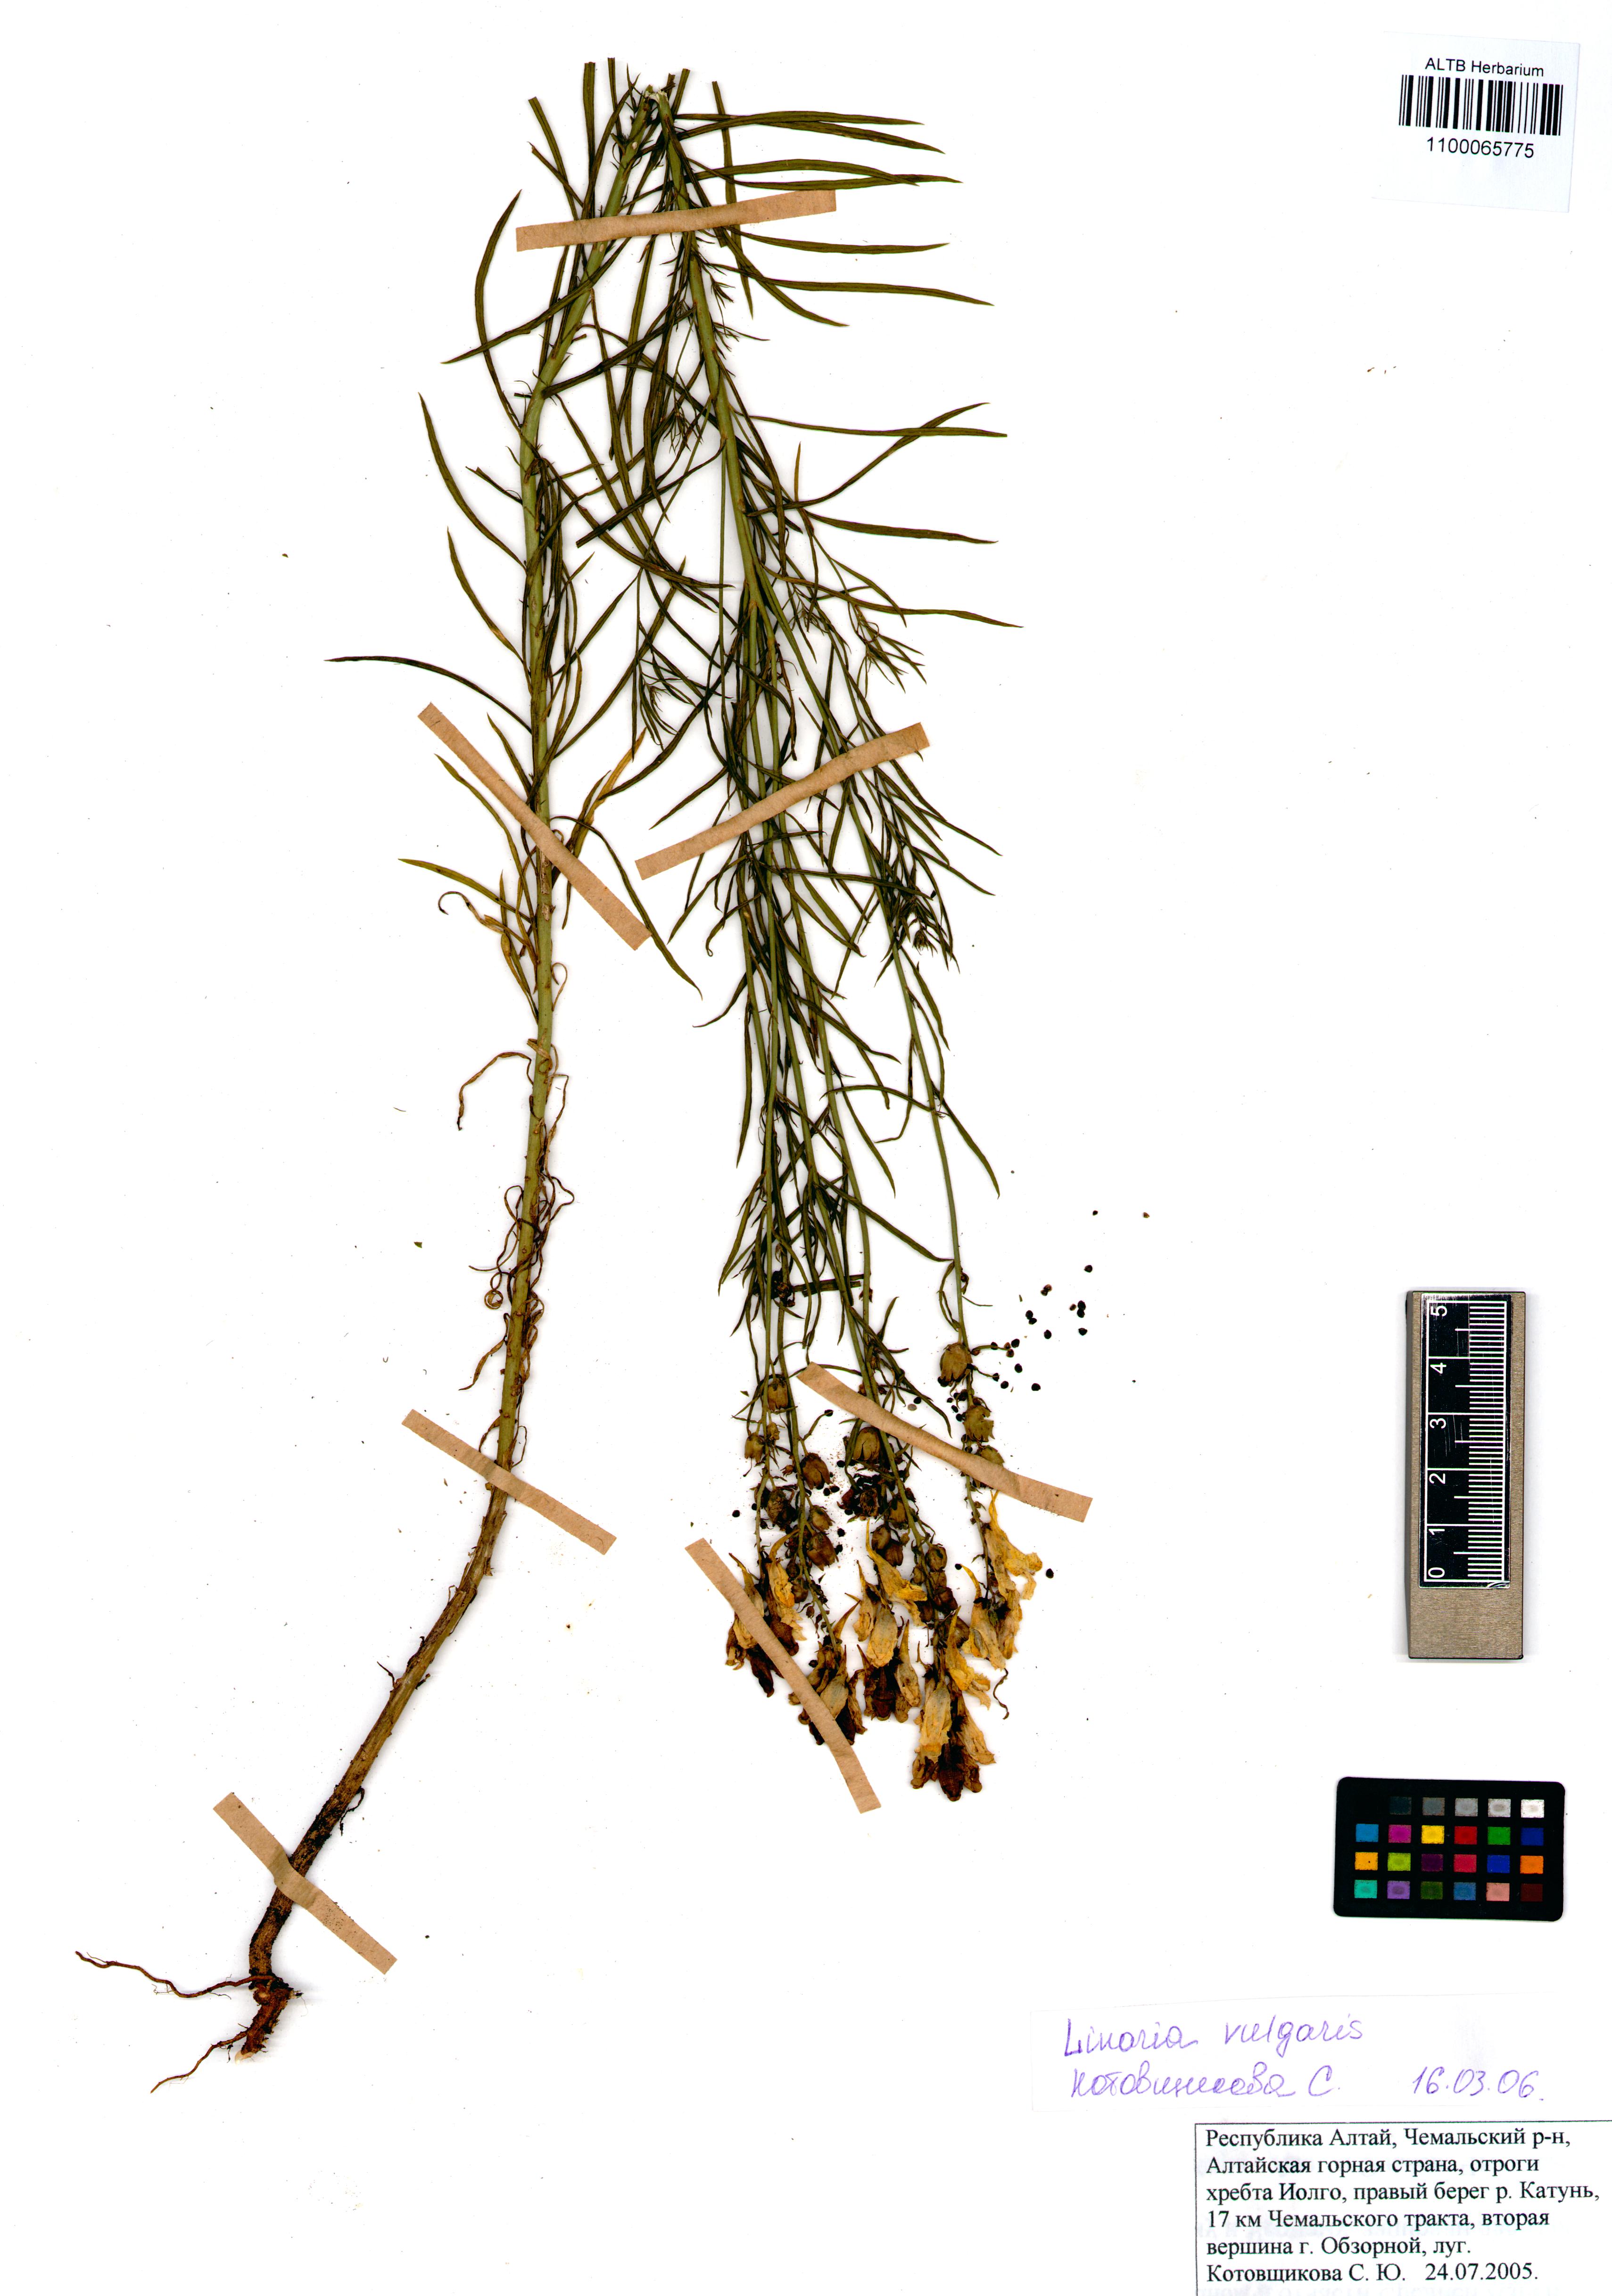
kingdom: Plantae
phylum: Tracheophyta
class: Magnoliopsida
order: Lamiales
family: Plantaginaceae
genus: Linaria
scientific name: Linaria vulgaris
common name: Butter and eggs
